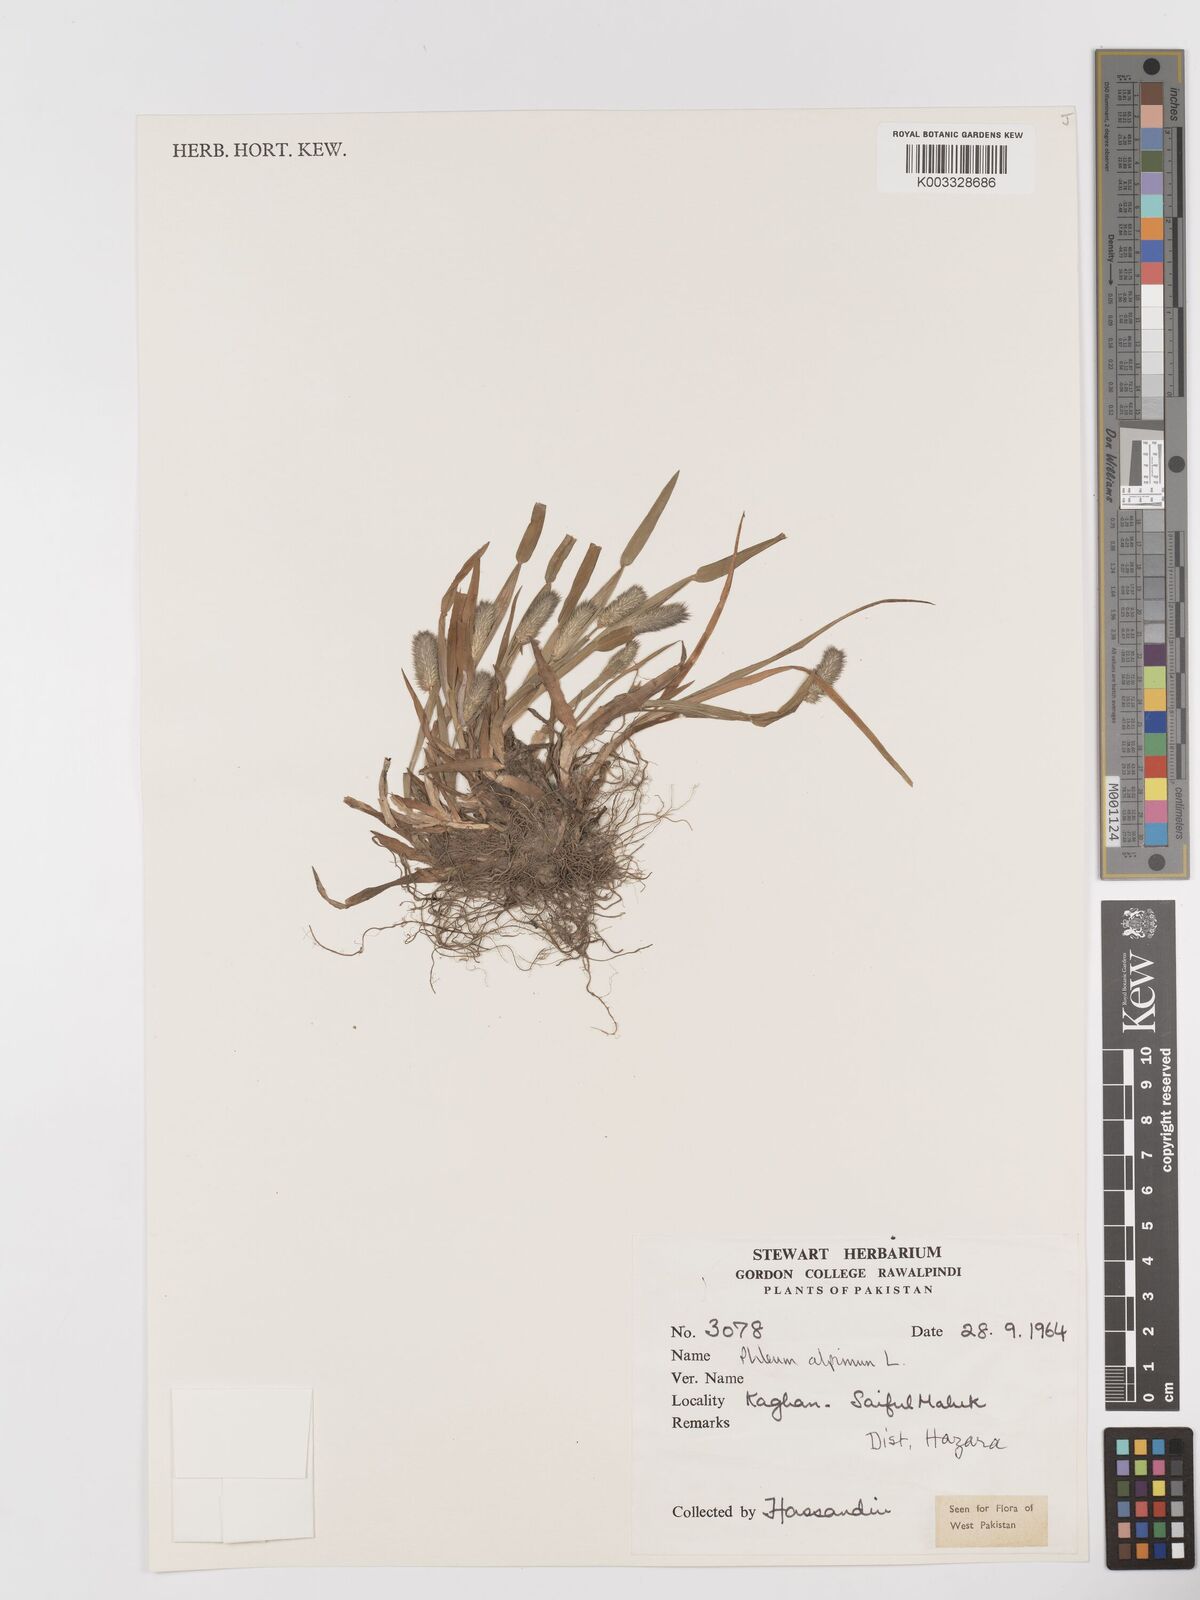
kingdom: Plantae
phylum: Tracheophyta
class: Liliopsida
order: Poales
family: Poaceae
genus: Phleum
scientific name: Phleum alpinum
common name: Alpine cat's-tail
